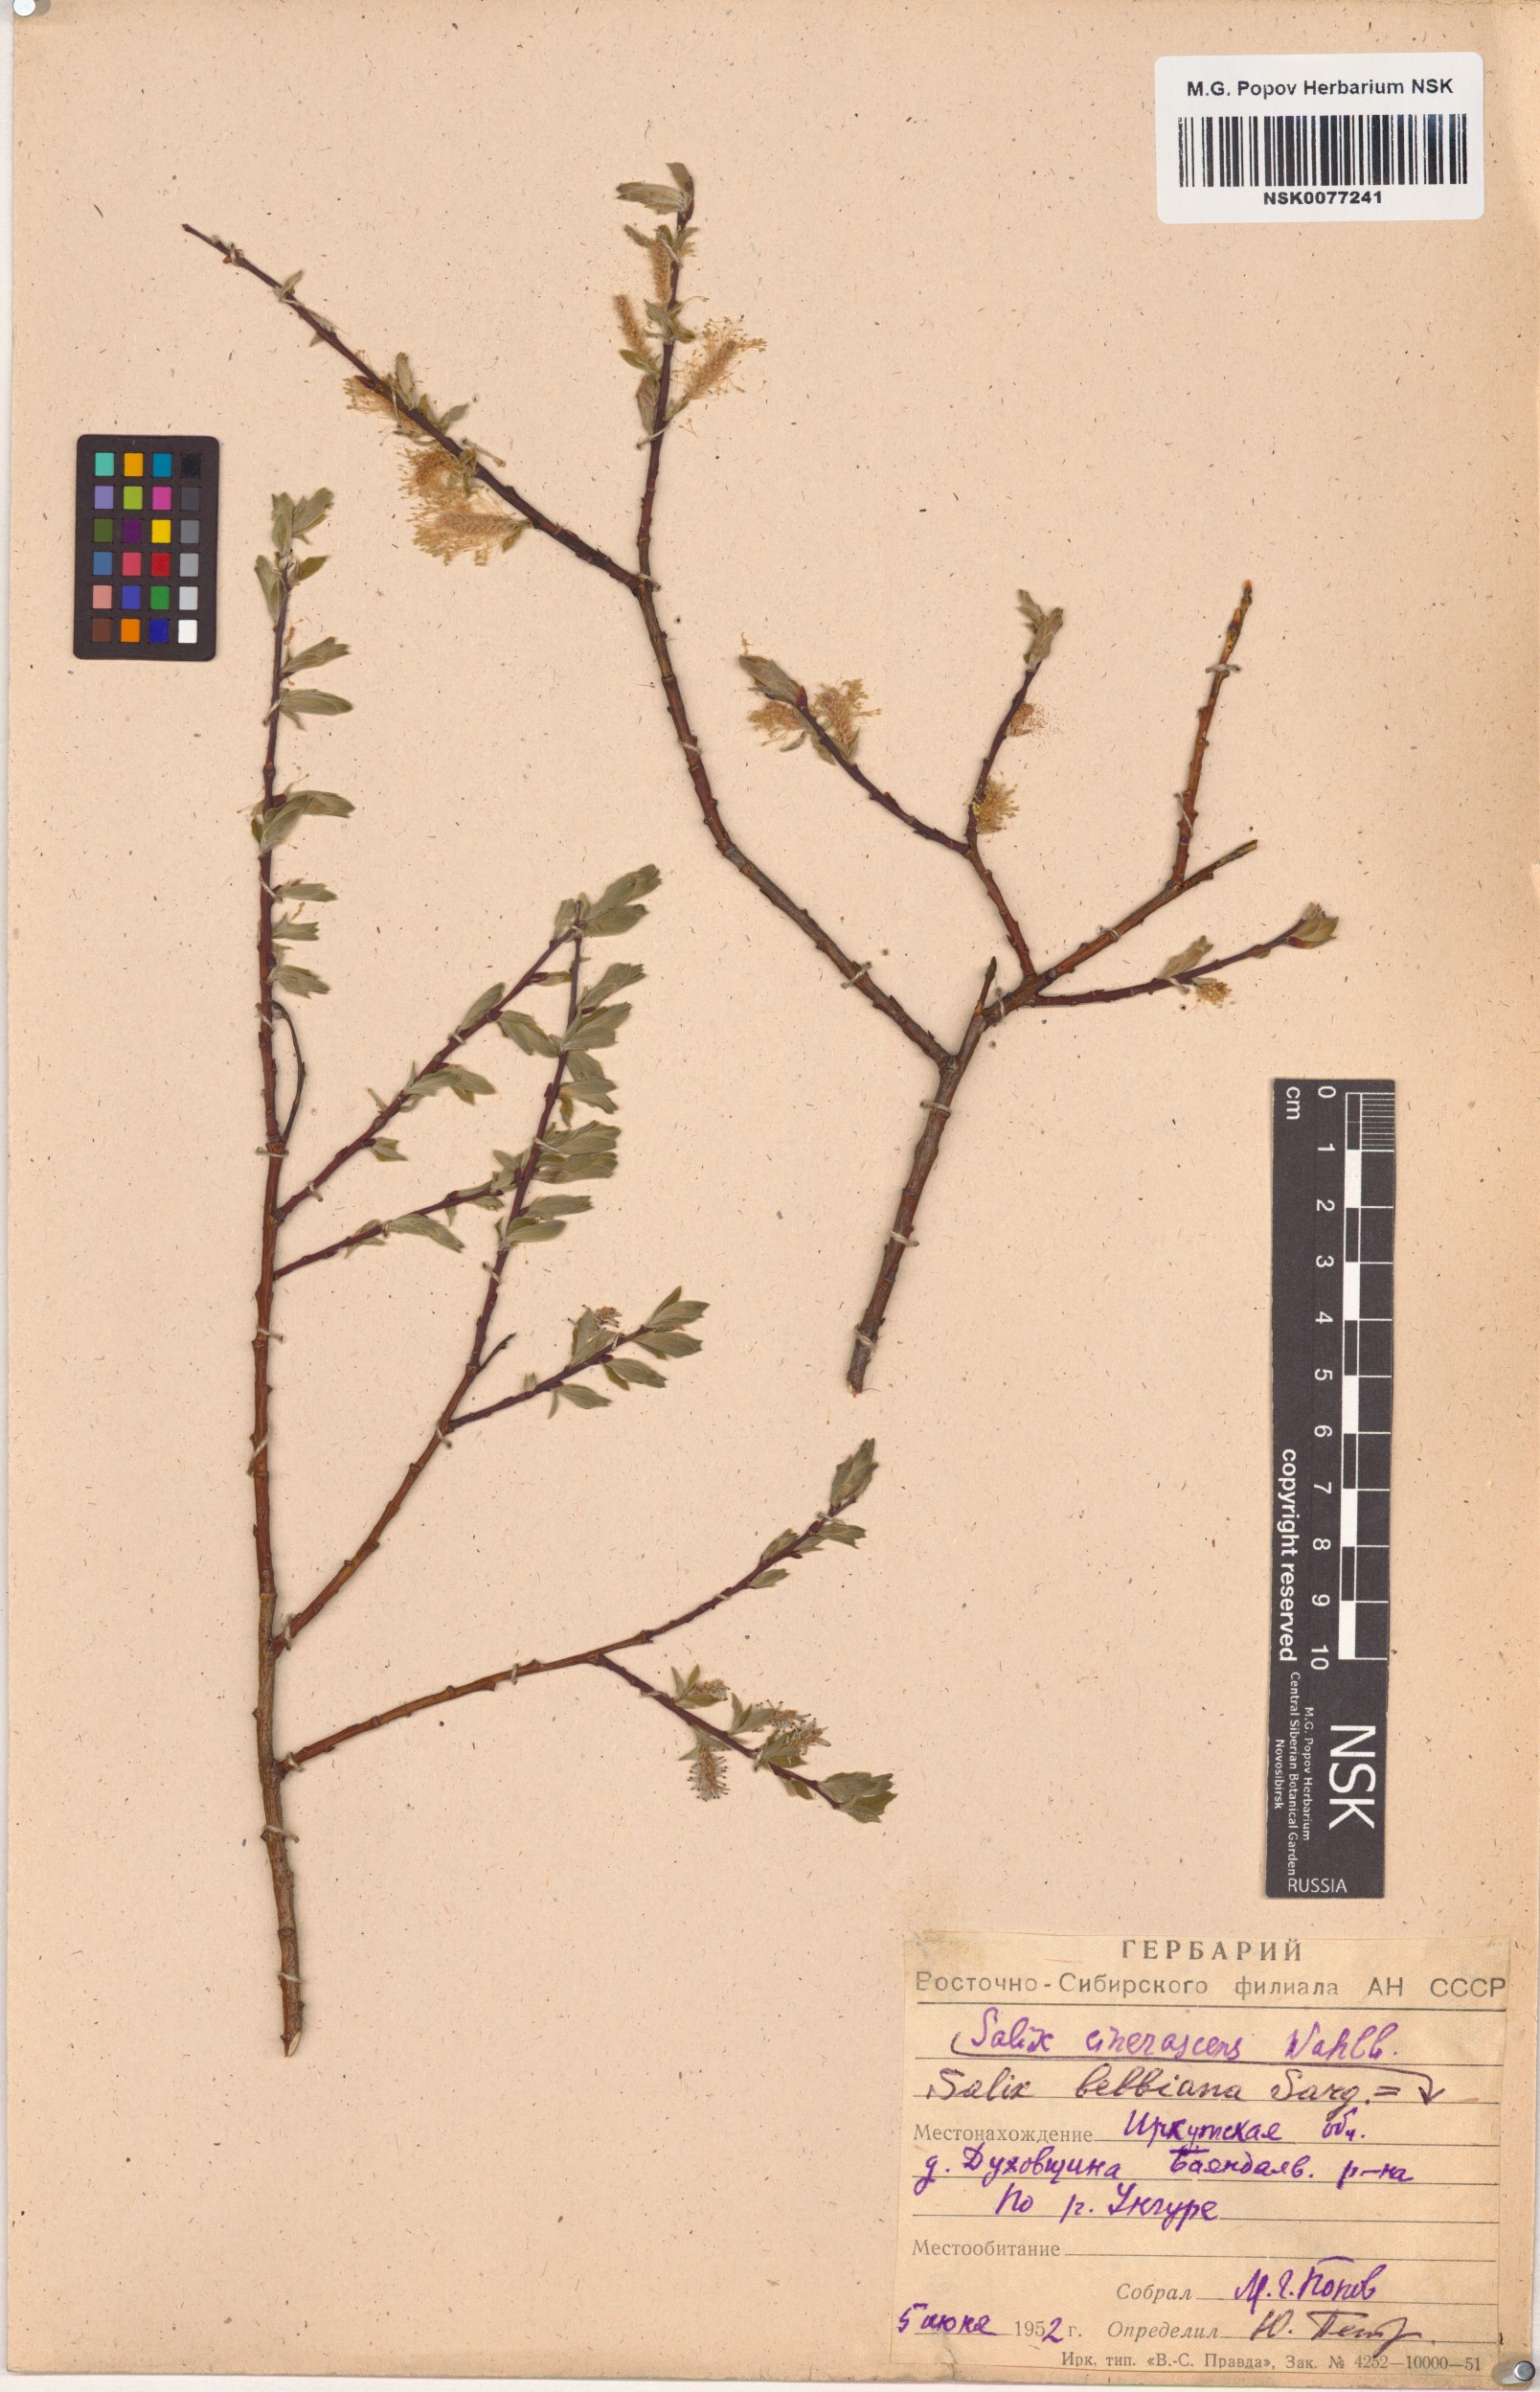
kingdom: Plantae
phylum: Tracheophyta
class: Magnoliopsida
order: Malpighiales
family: Salicaceae
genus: Salix
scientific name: Salix bebbiana
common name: Bebb's willow
